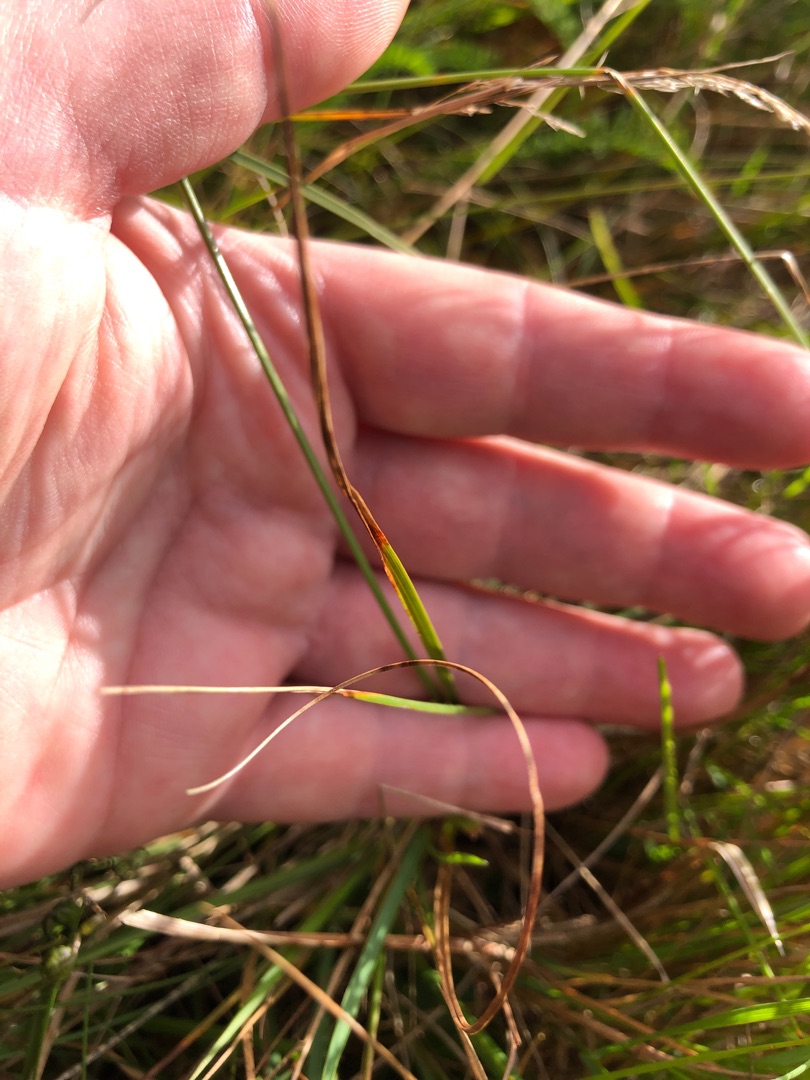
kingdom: Plantae
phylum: Tracheophyta
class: Liliopsida
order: Poales
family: Cyperaceae
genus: Carex
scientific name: Carex arenaria
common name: Sand-star
